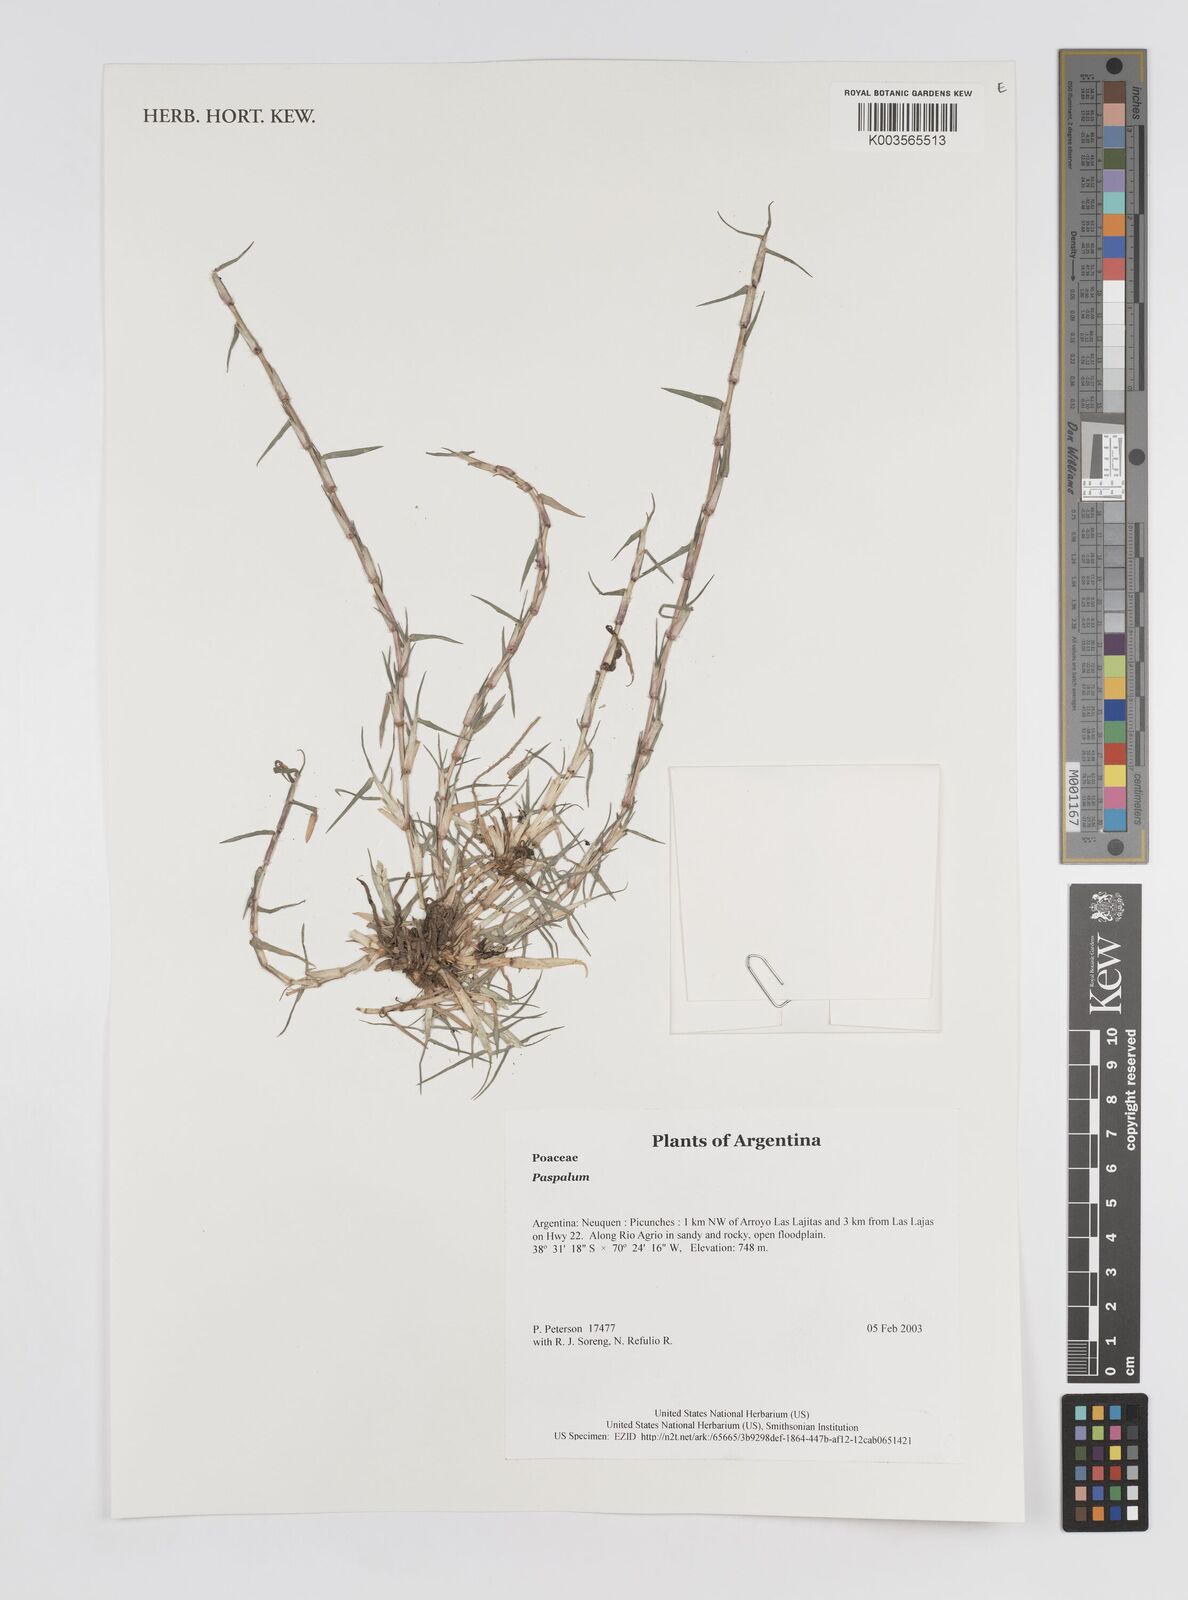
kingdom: Plantae
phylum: Tracheophyta
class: Liliopsida
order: Poales
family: Poaceae
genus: Paspalum
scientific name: Paspalum
